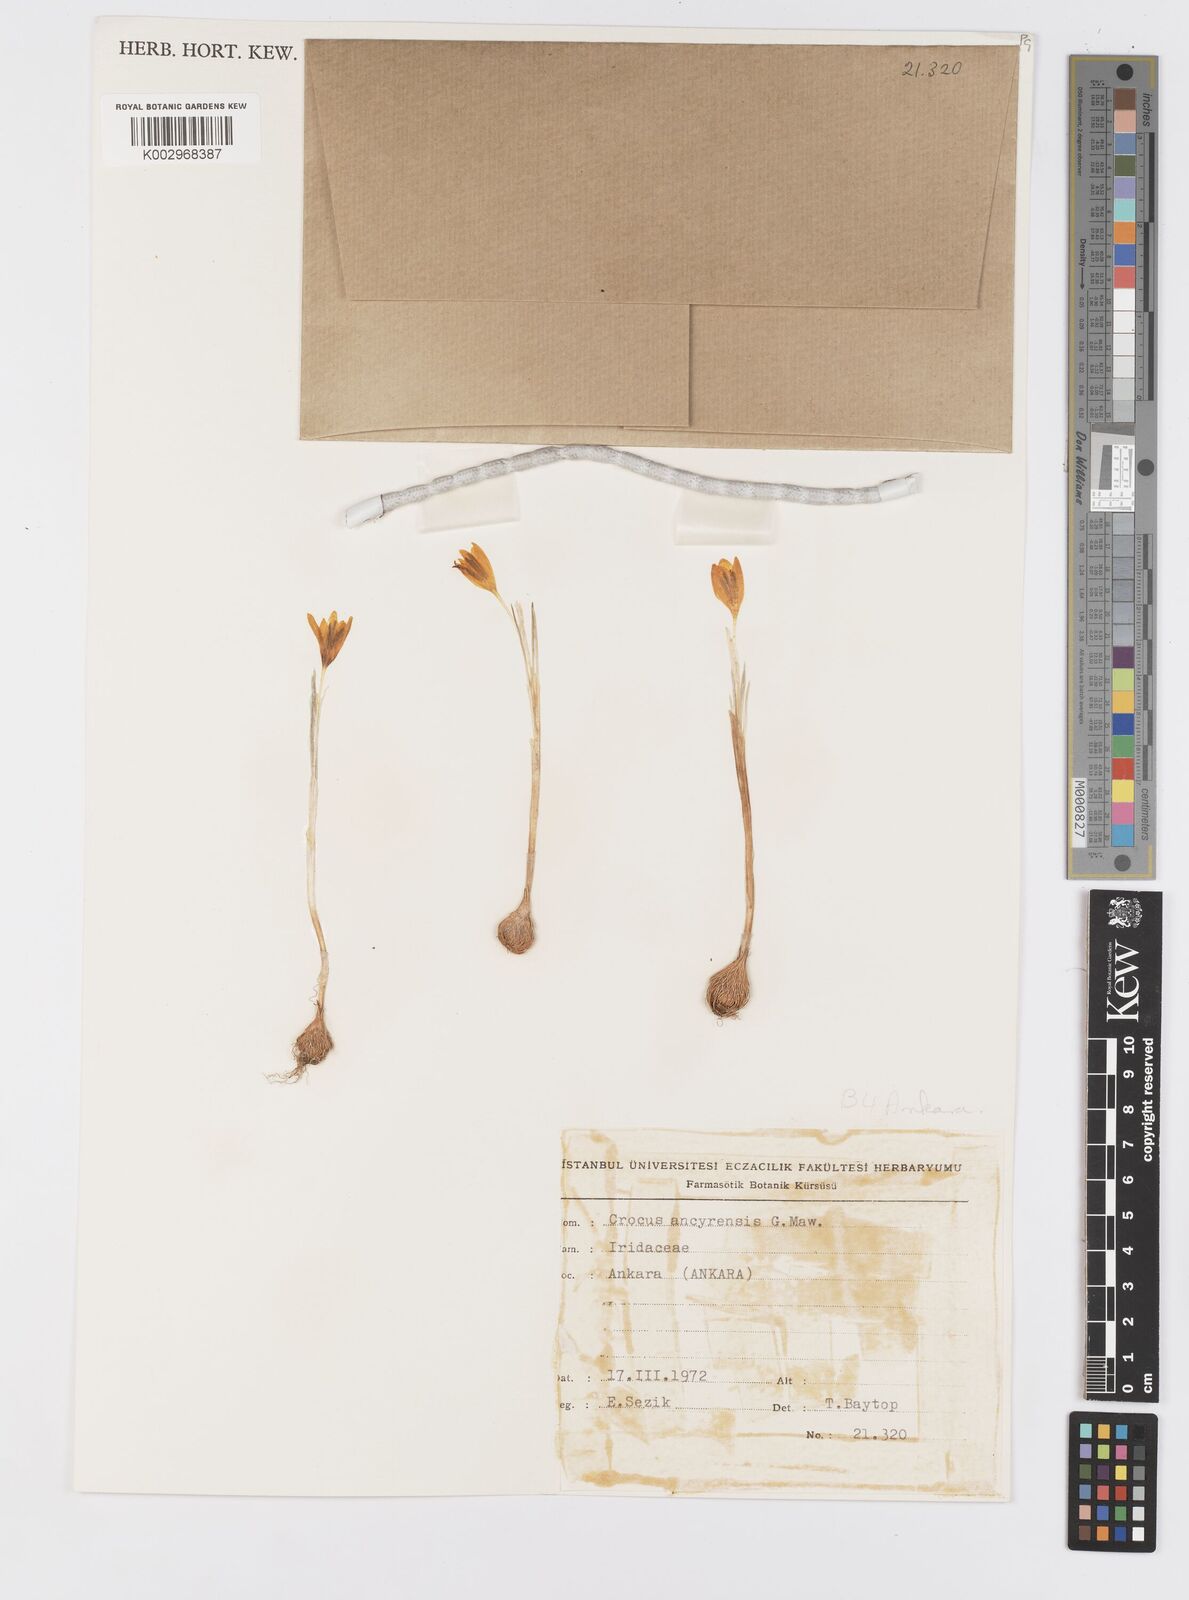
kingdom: Plantae
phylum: Tracheophyta
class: Liliopsida
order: Asparagales
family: Iridaceae
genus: Crocus
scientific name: Crocus ancyrensis
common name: Ankara crocus
